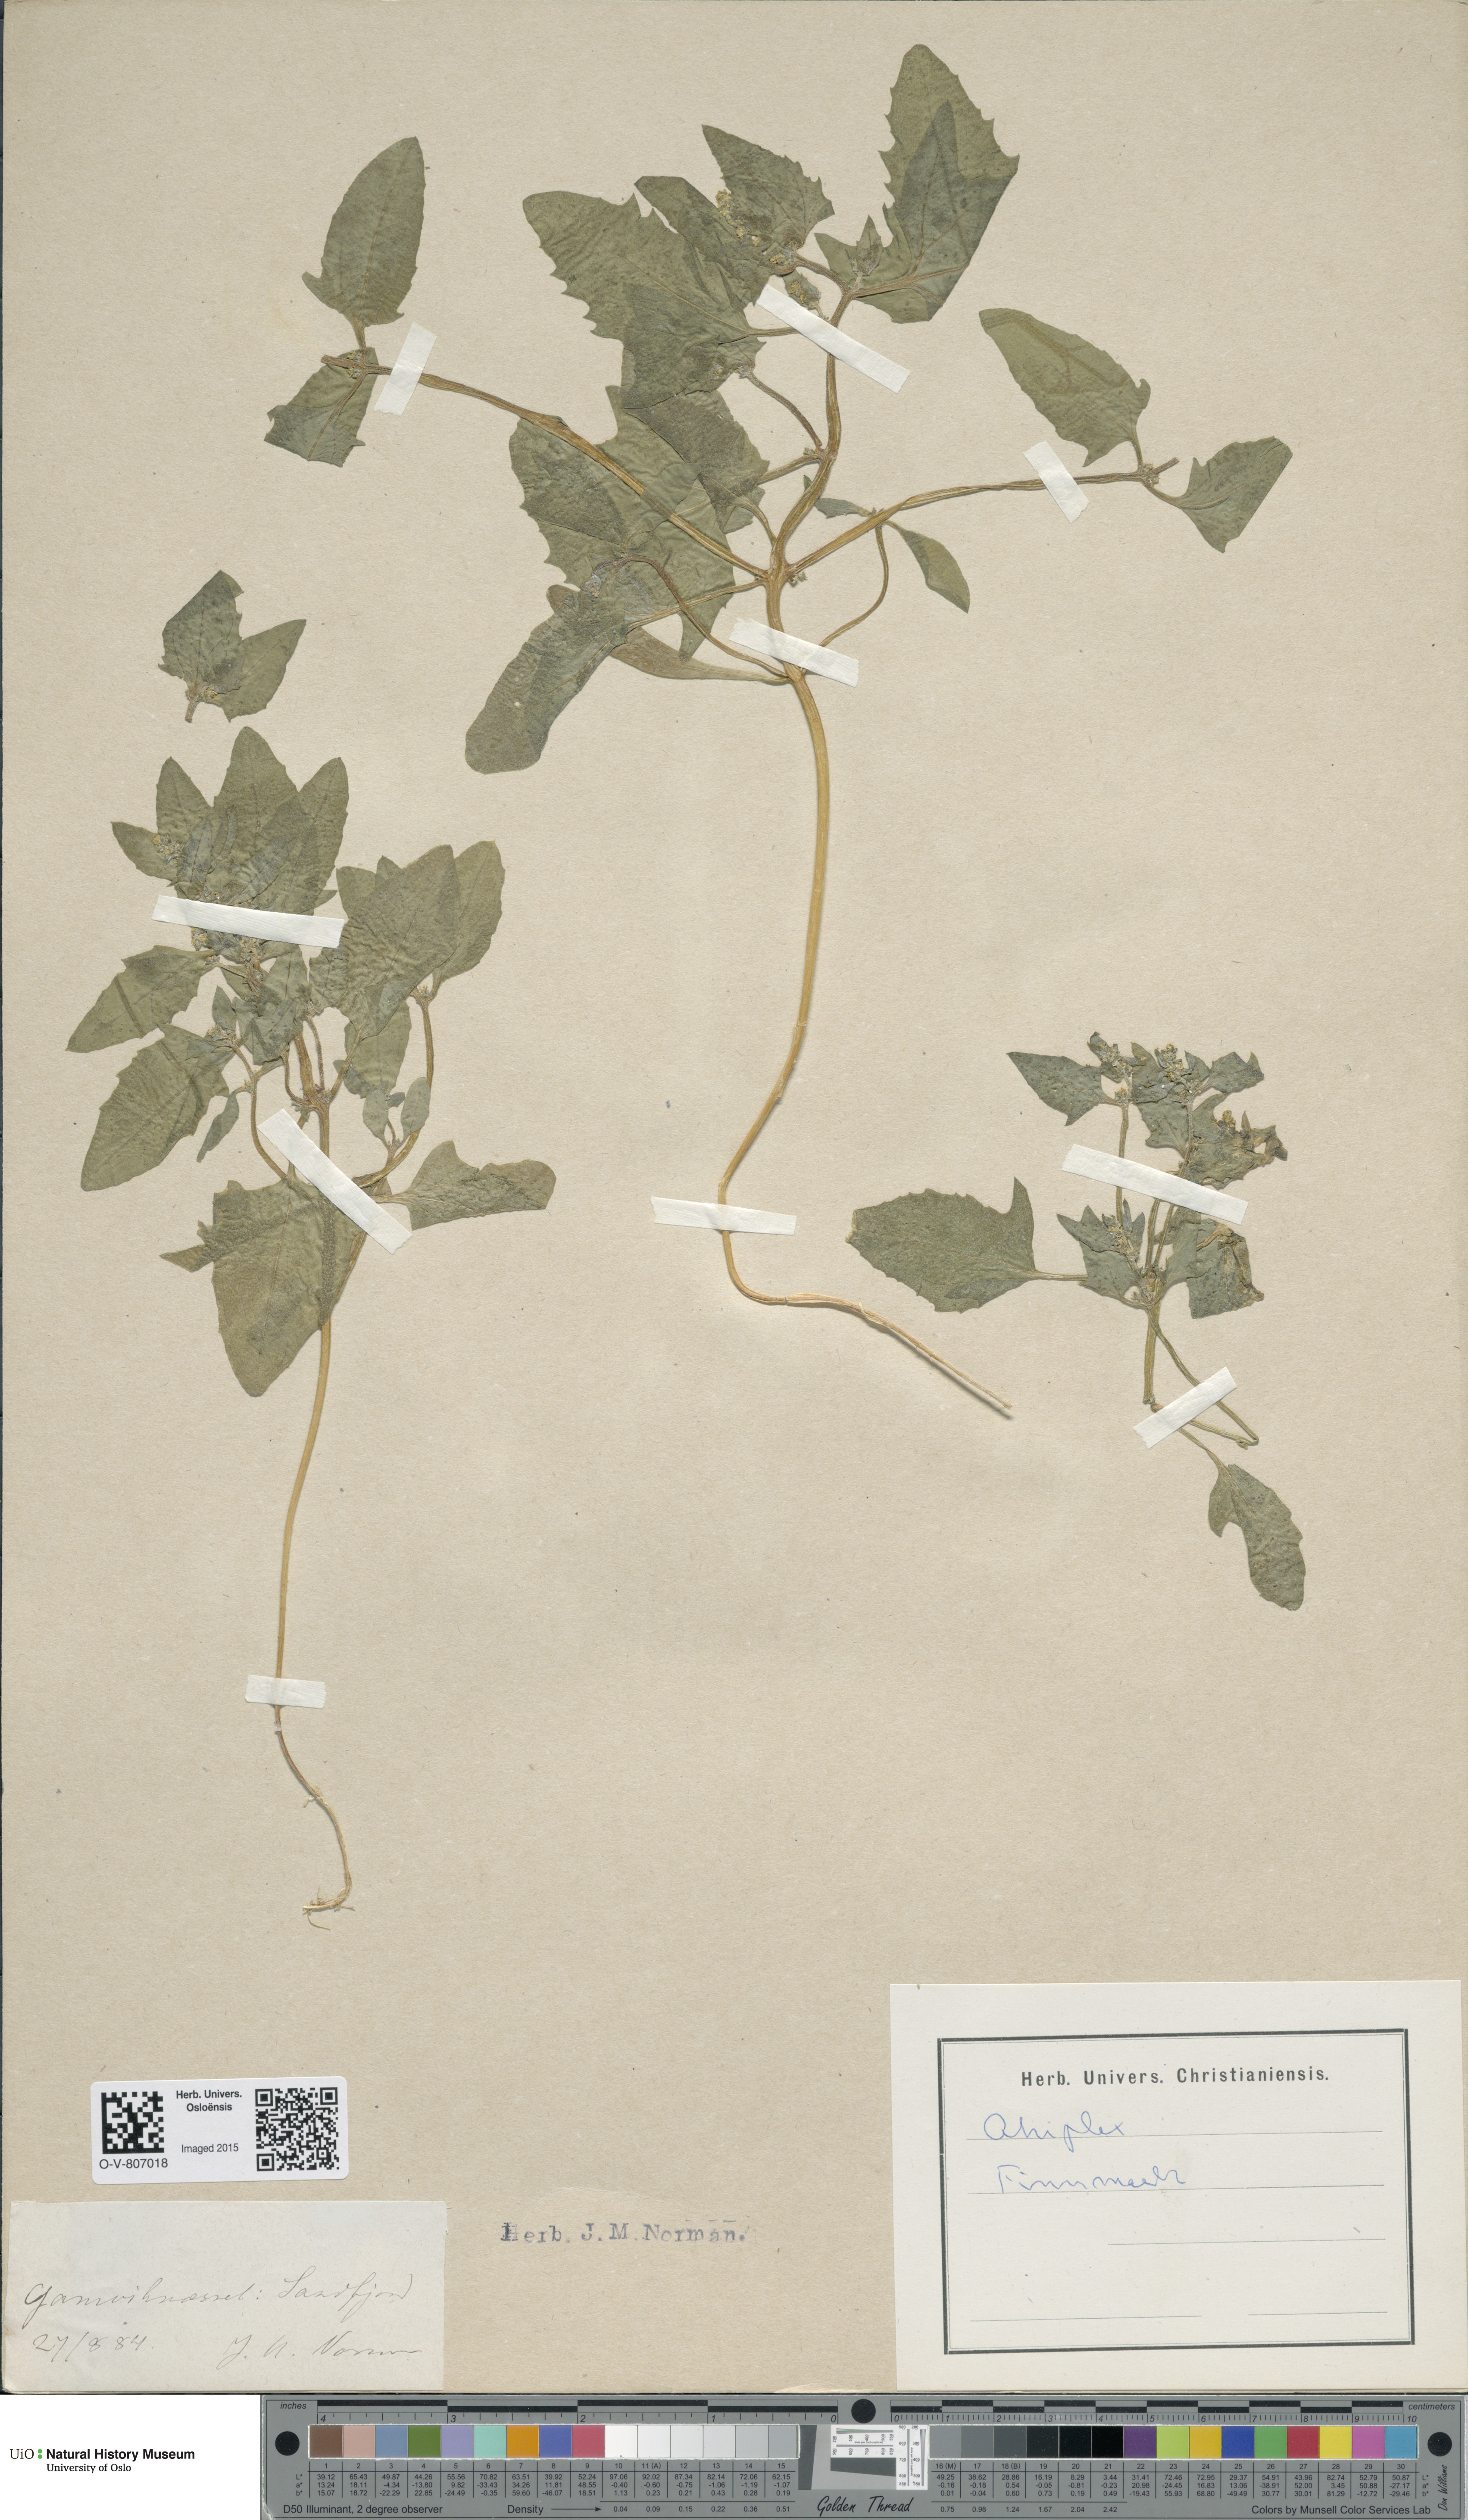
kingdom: Plantae
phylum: Tracheophyta
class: Magnoliopsida
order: Caryophyllales
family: Amaranthaceae
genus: Atriplex
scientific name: Atriplex
